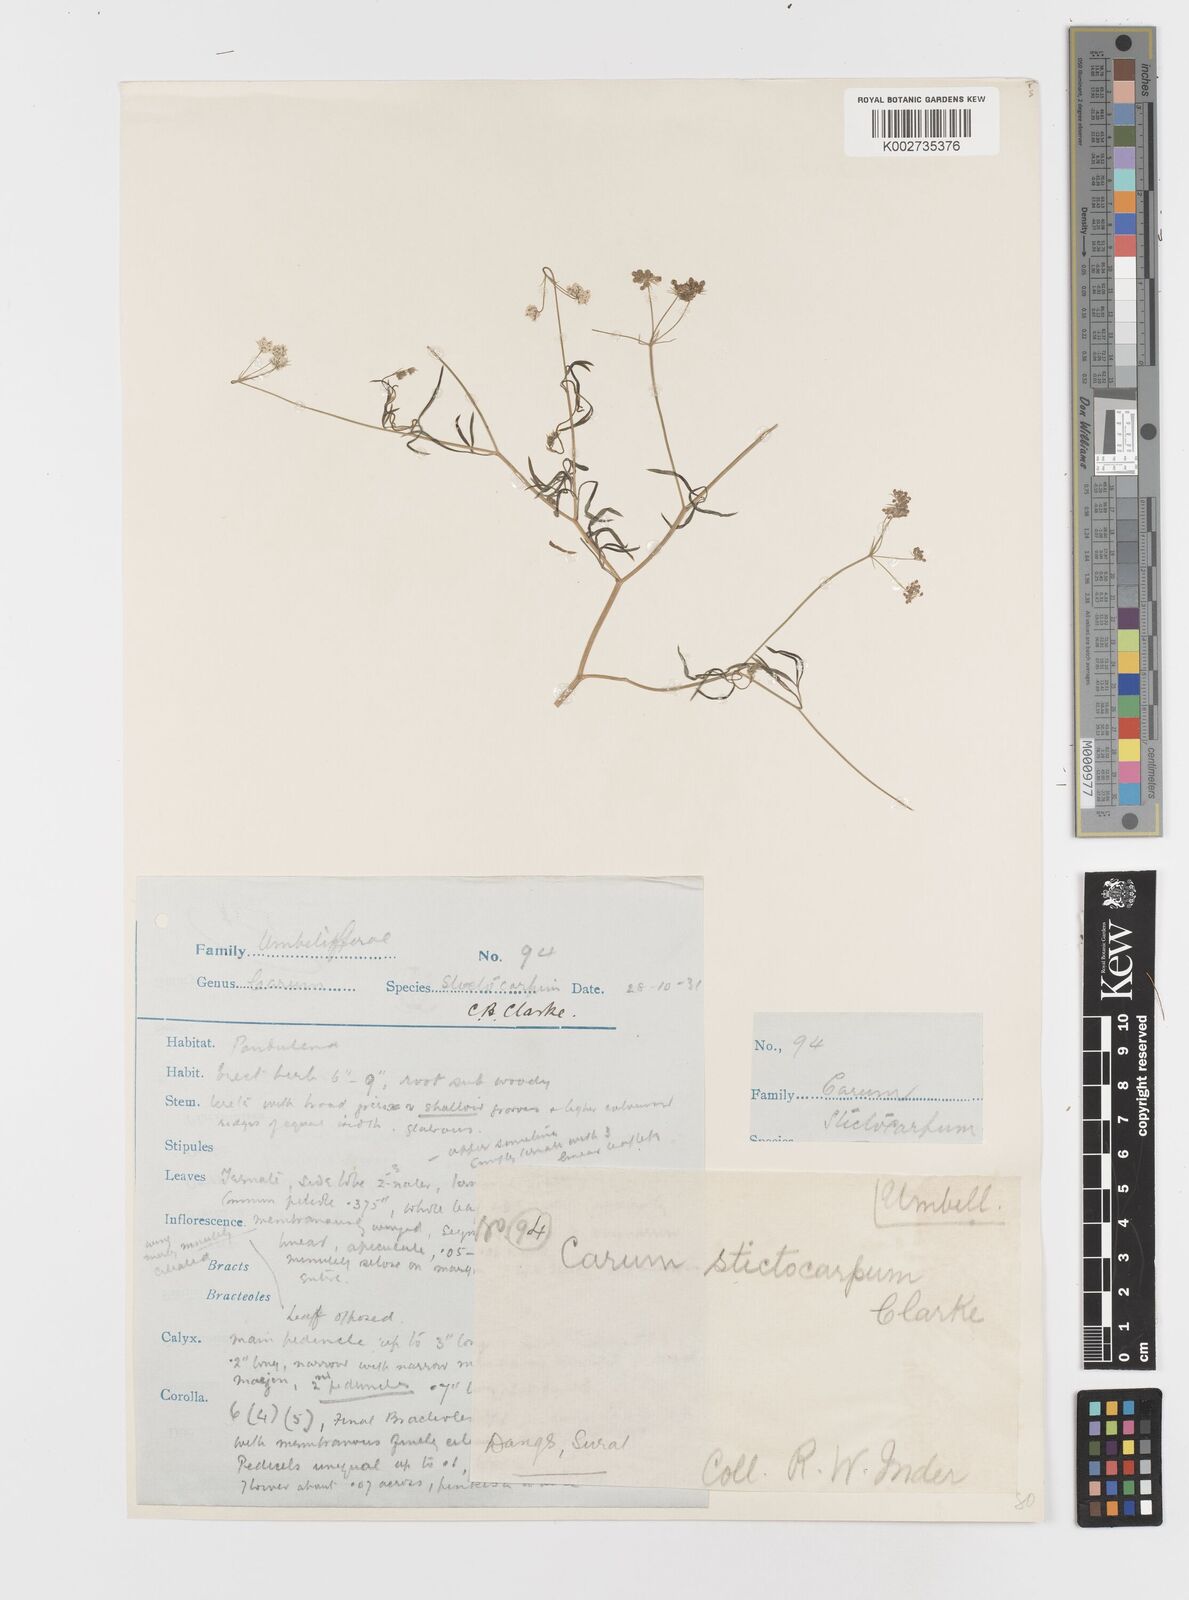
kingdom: Plantae
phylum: Tracheophyta
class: Magnoliopsida
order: Apiales
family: Apiaceae
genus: Psammogeton
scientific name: Psammogeton involucratum
